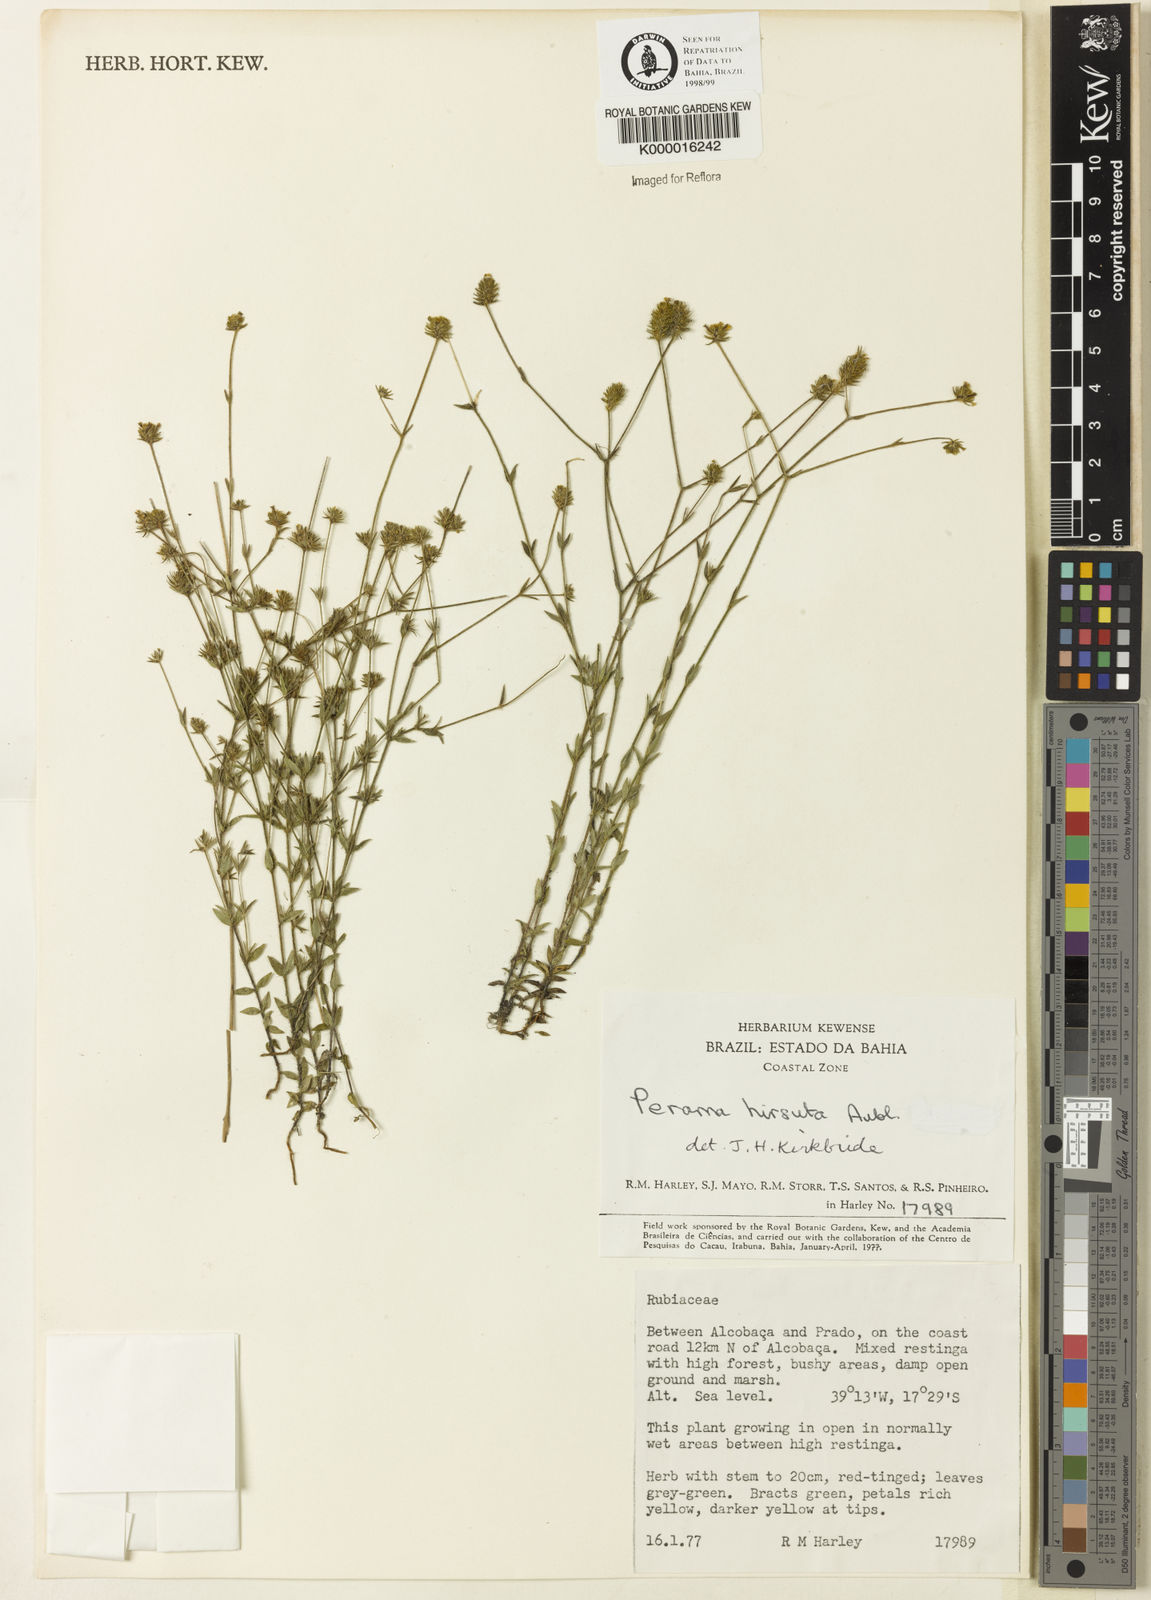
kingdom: Plantae
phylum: Tracheophyta
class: Magnoliopsida
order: Gentianales
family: Rubiaceae
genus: Perama
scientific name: Perama hirsuta
